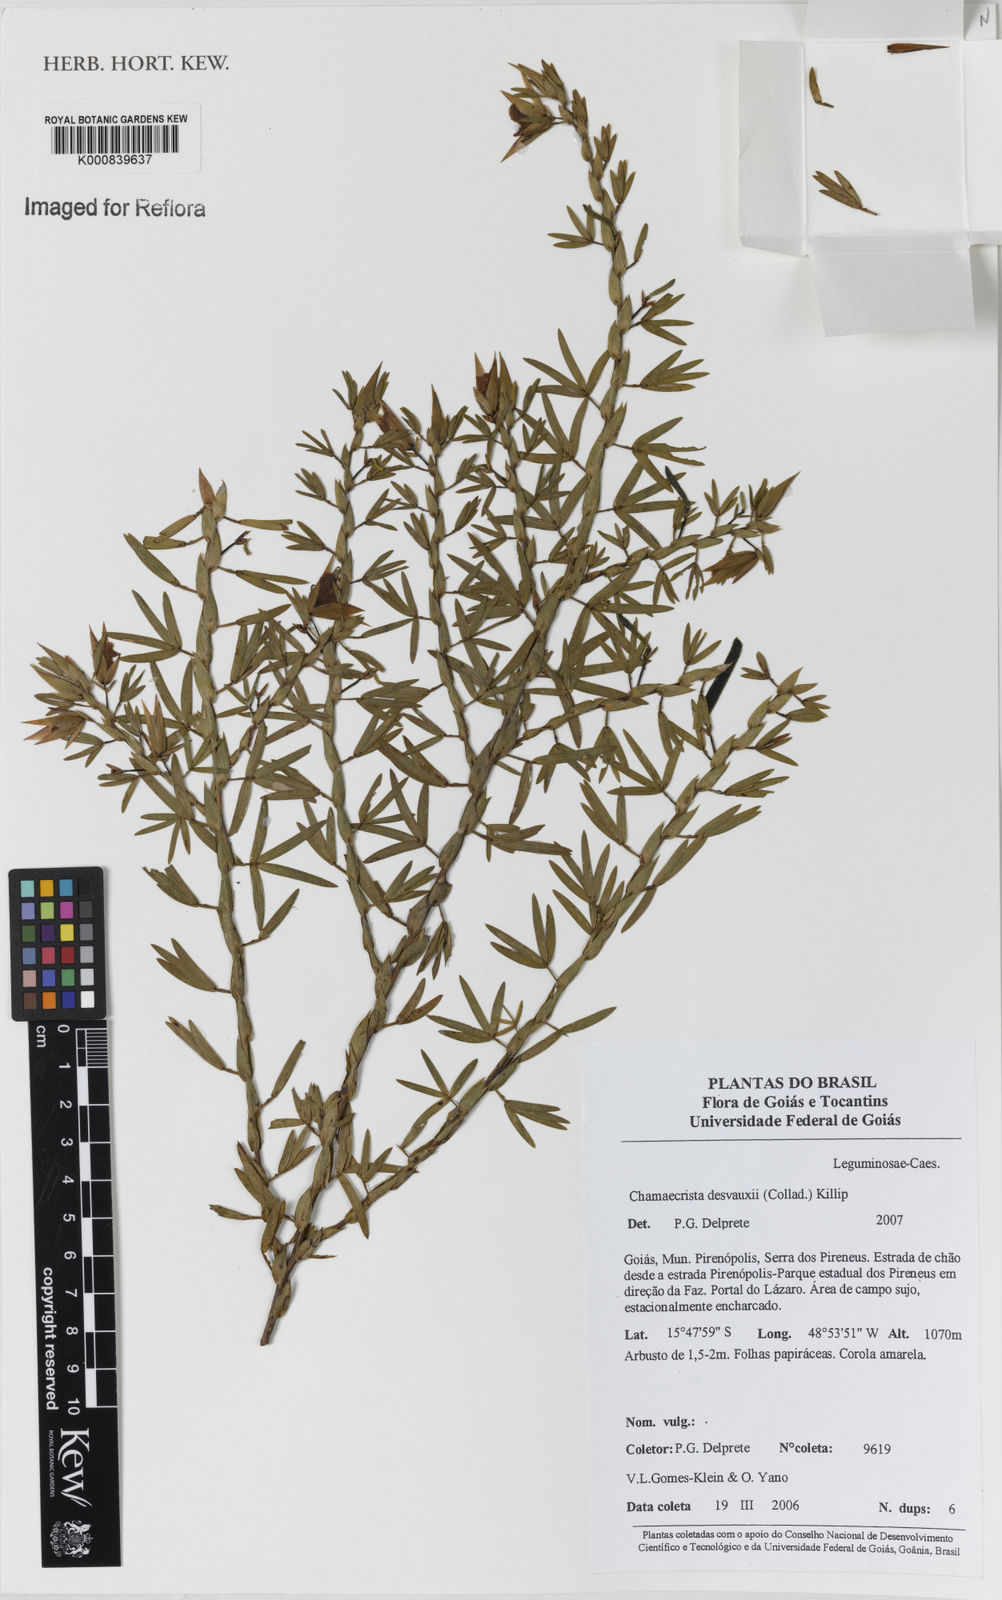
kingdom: Plantae
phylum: Tracheophyta
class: Magnoliopsida
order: Fabales
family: Fabaceae
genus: Chamaecrista
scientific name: Chamaecrista langsdorffii
